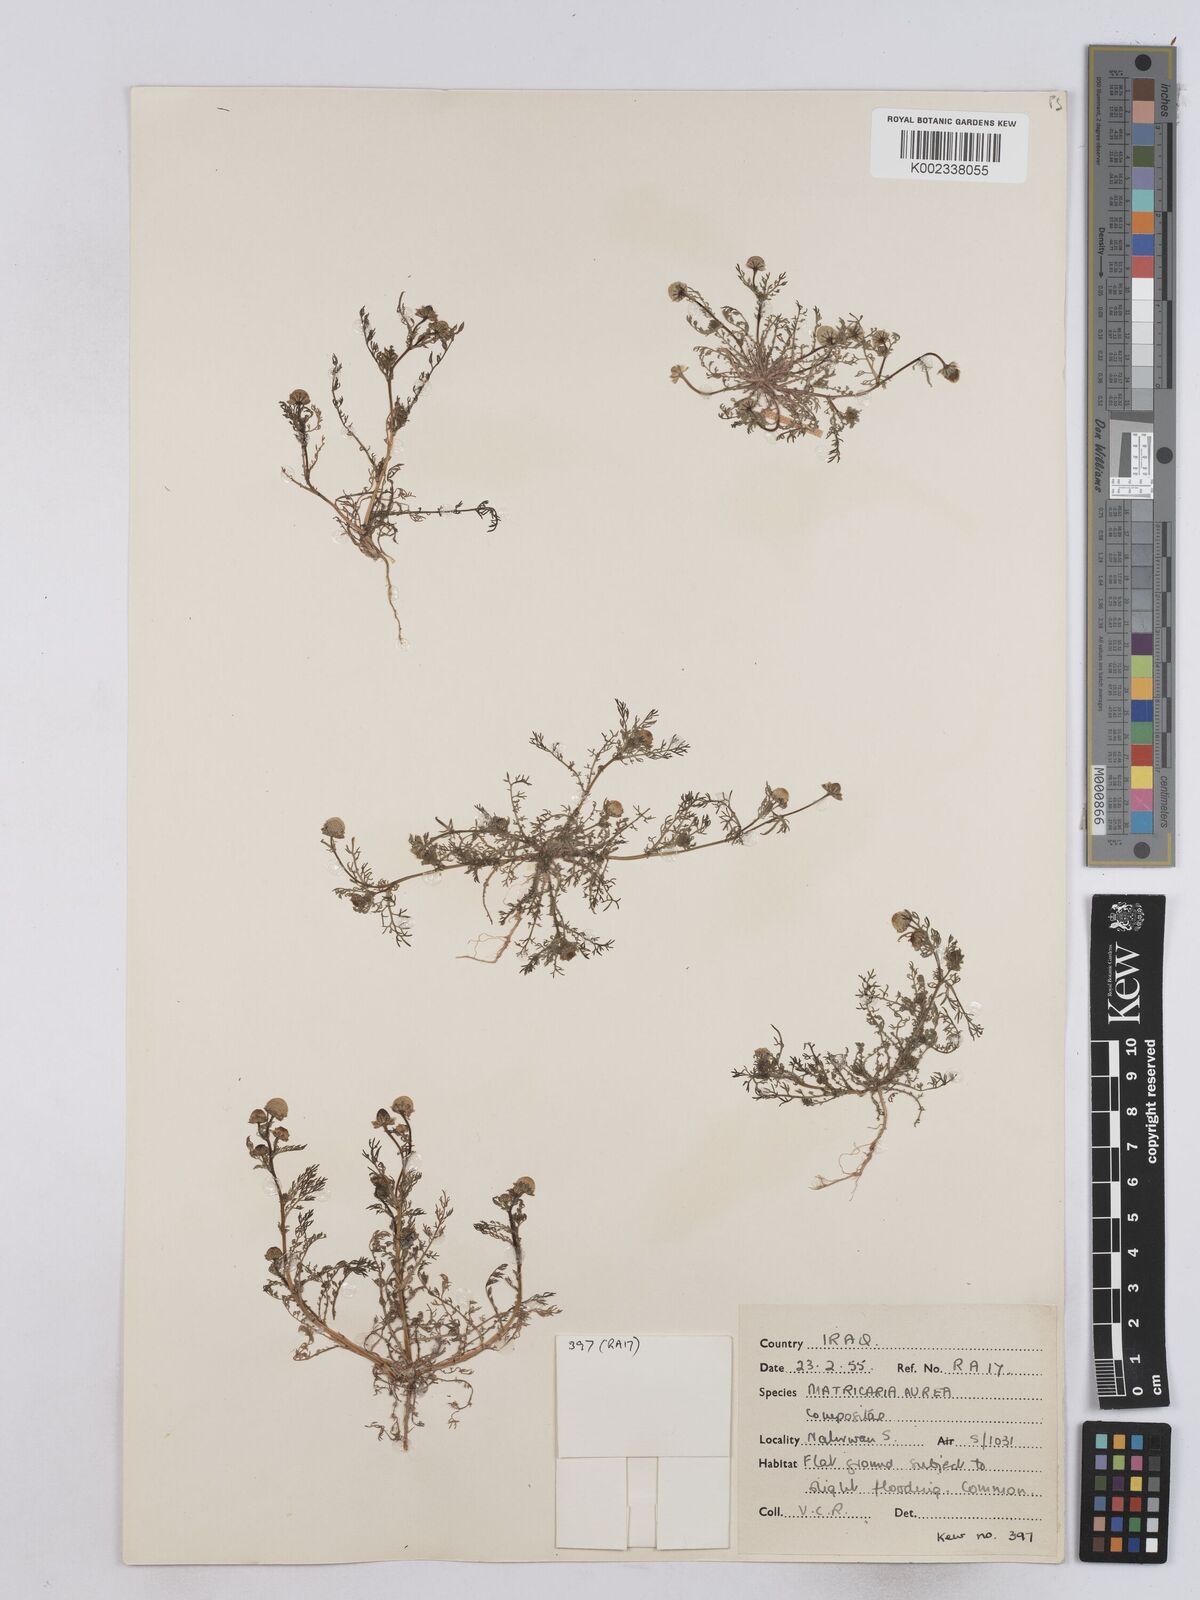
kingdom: Plantae
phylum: Tracheophyta
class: Magnoliopsida
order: Asterales
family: Asteraceae
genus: Matricaria
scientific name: Matricaria aurea
